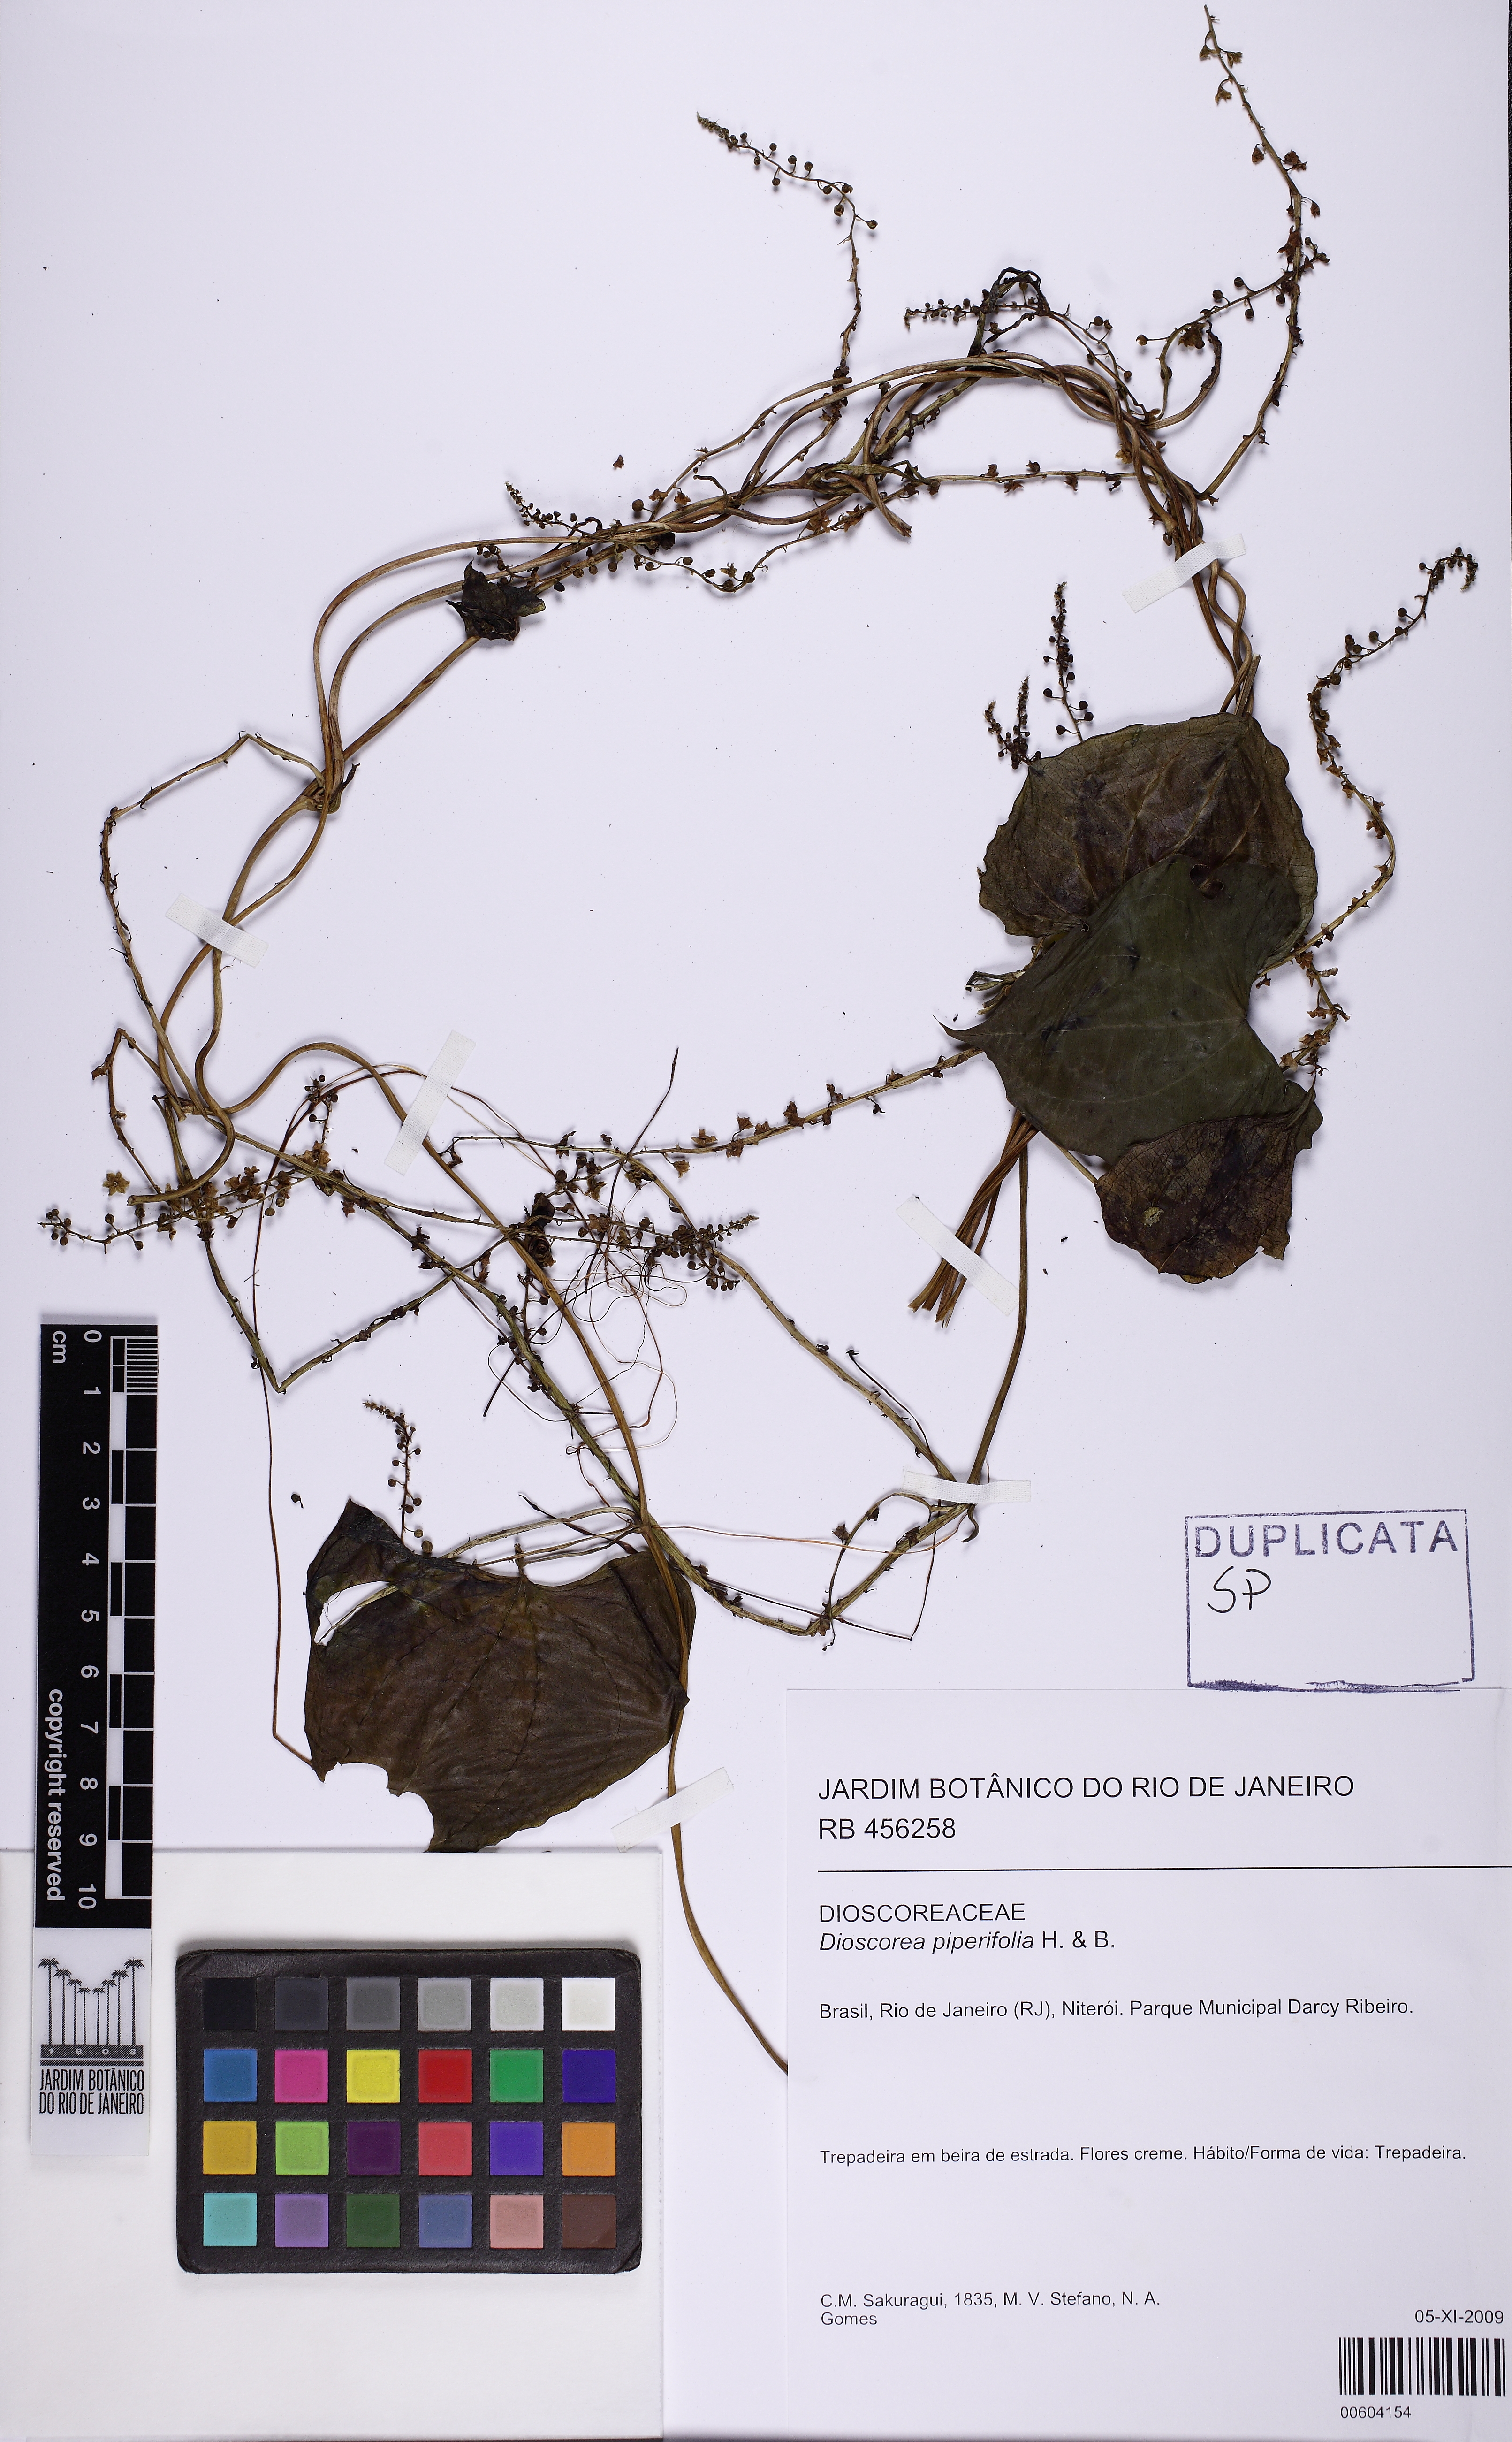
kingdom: Plantae
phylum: Tracheophyta
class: Liliopsida
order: Dioscoreales
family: Dioscoreaceae
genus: Dioscorea
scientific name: Dioscorea piperifolia
